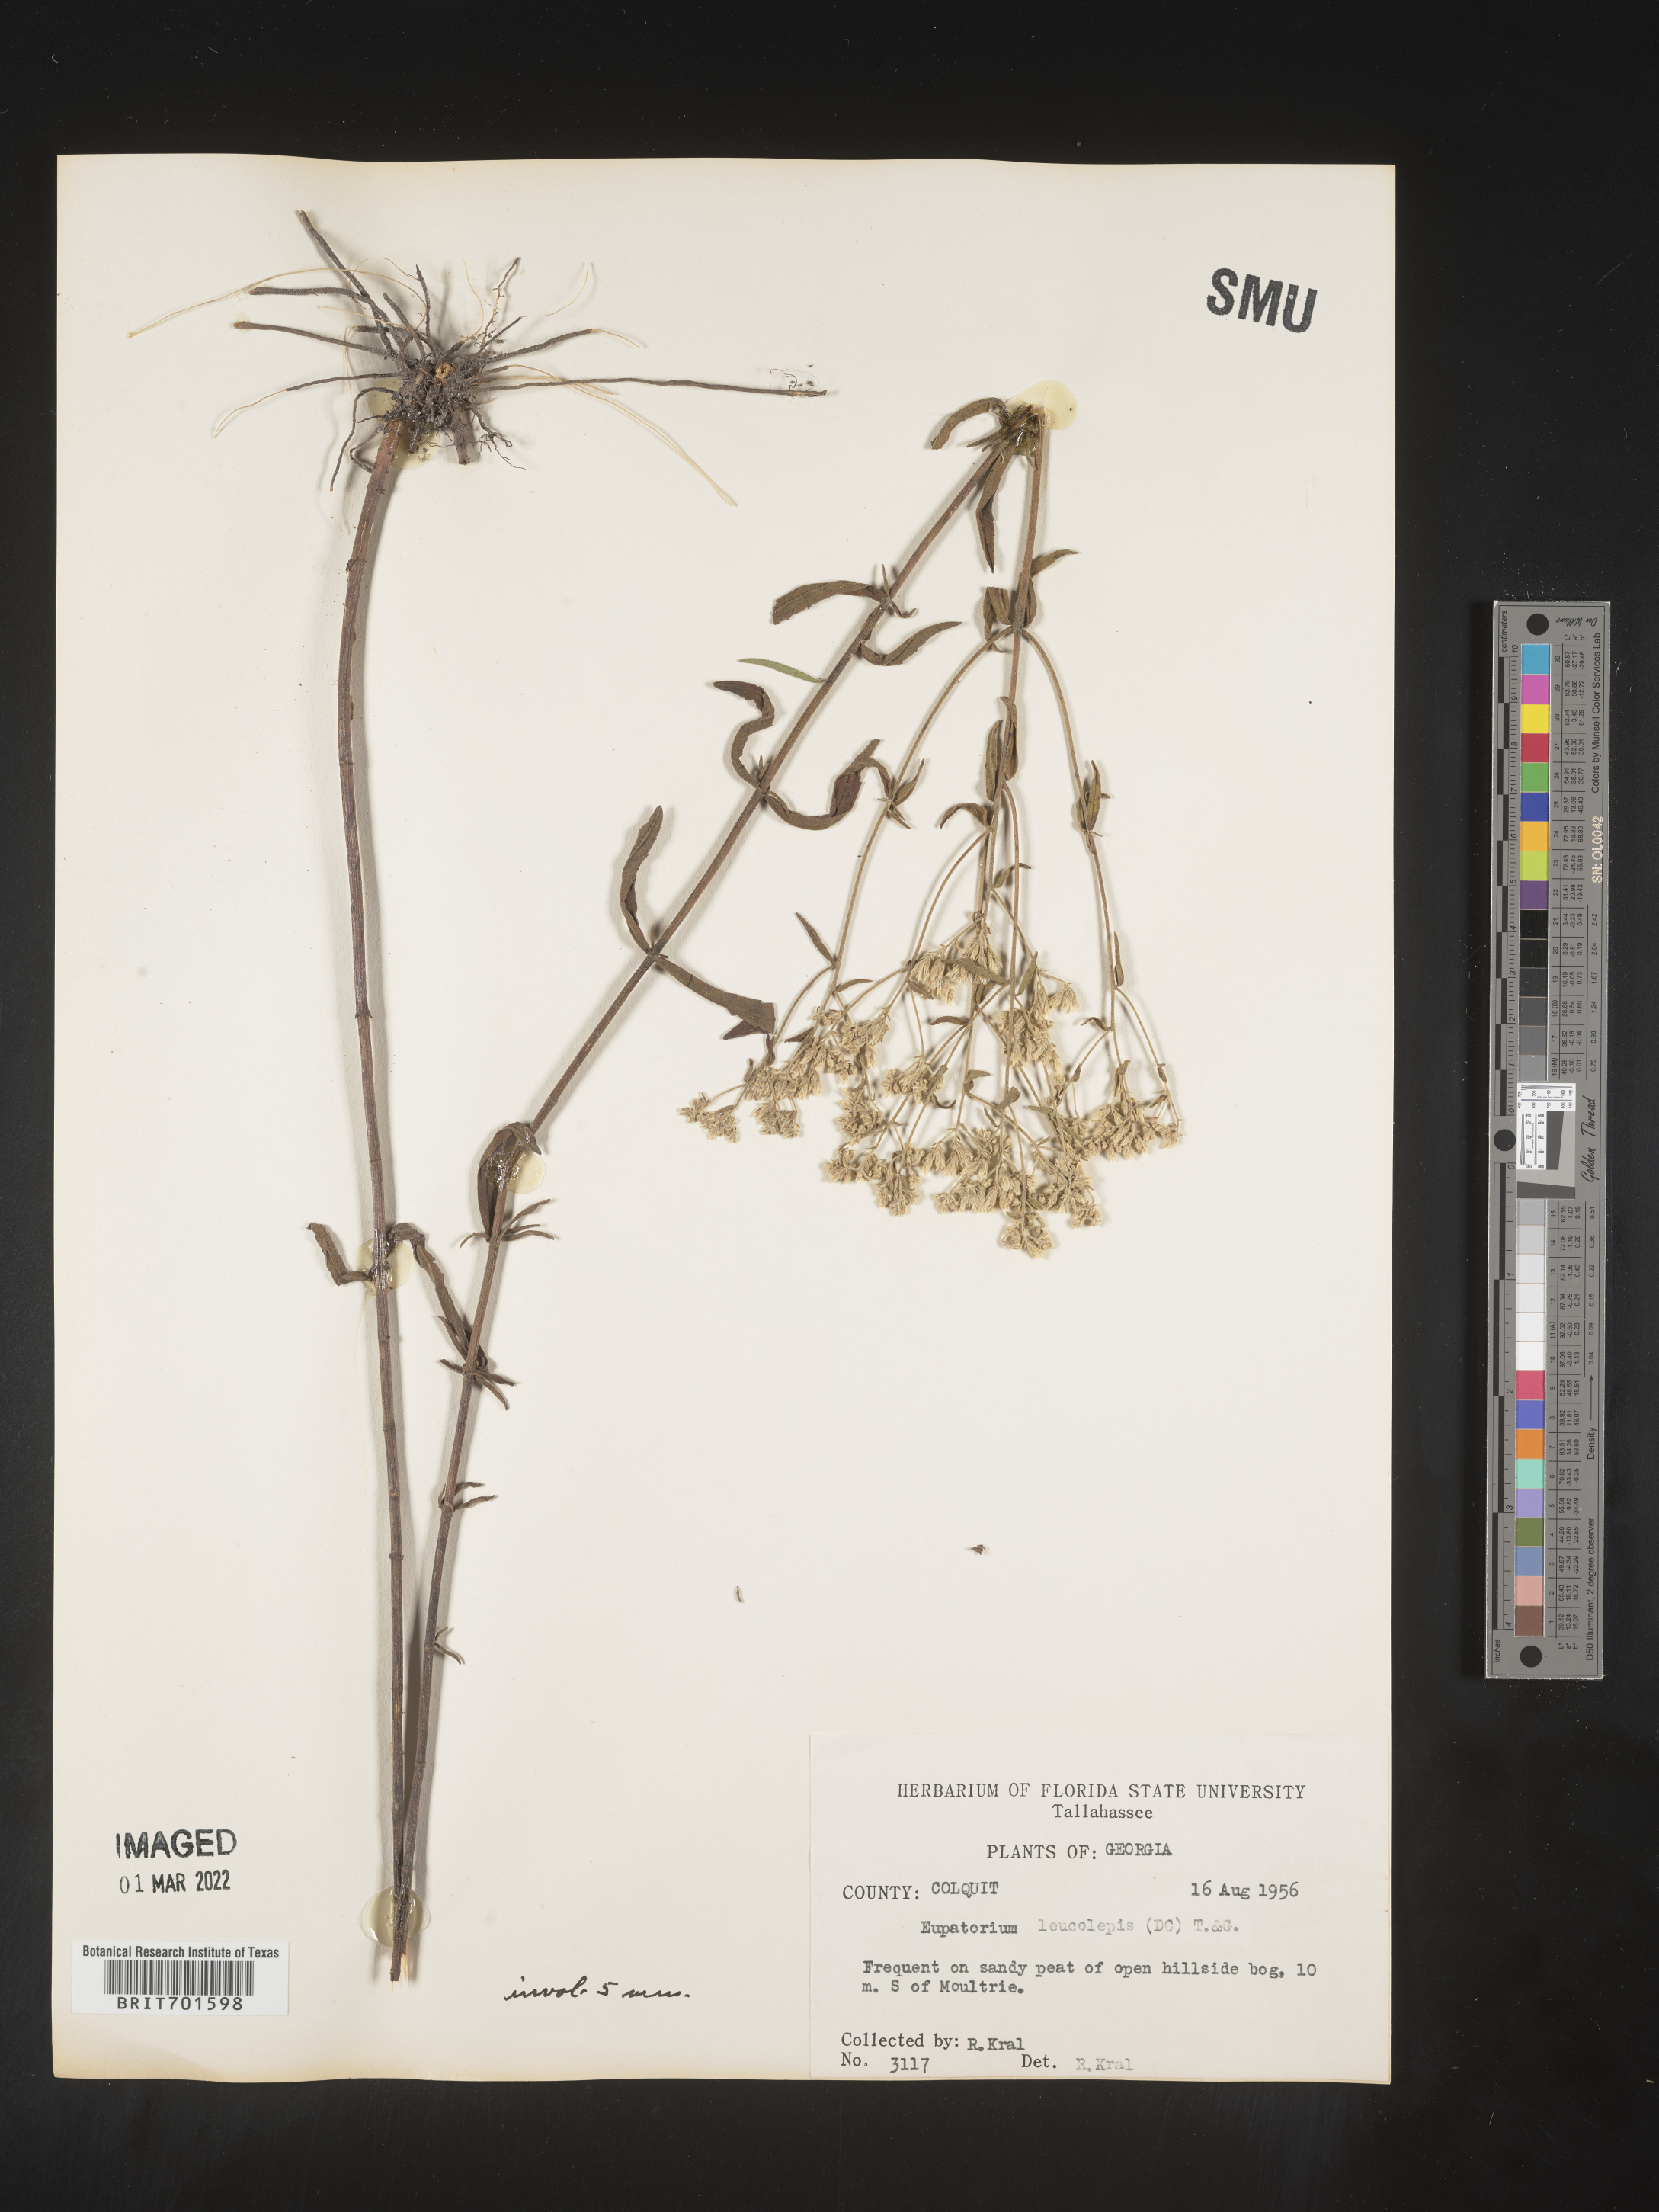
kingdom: Plantae
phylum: Tracheophyta
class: Magnoliopsida
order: Asterales
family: Asteraceae
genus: Eupatorium
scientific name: Eupatorium leucolepis
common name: Justiceweed
